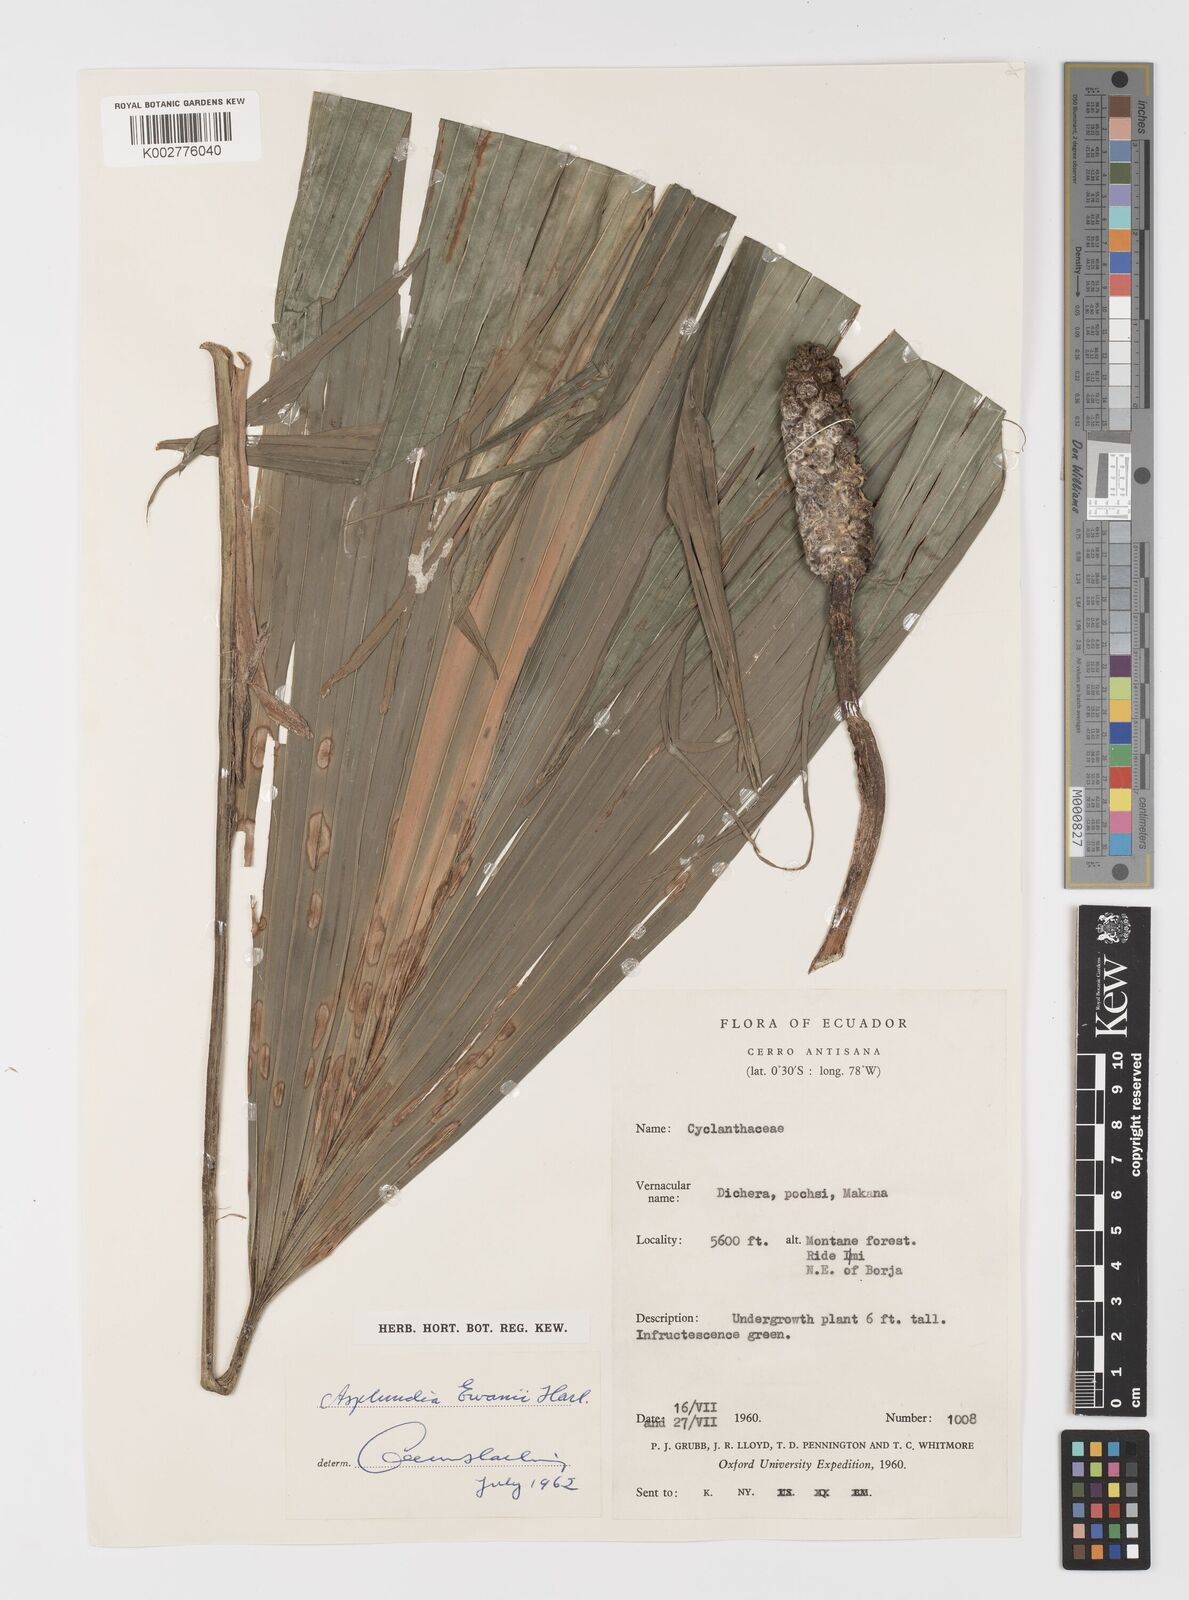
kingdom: Plantae
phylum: Tracheophyta
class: Liliopsida
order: Pandanales
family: Cyclanthaceae
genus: Asplundia
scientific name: Asplundia ewanii
